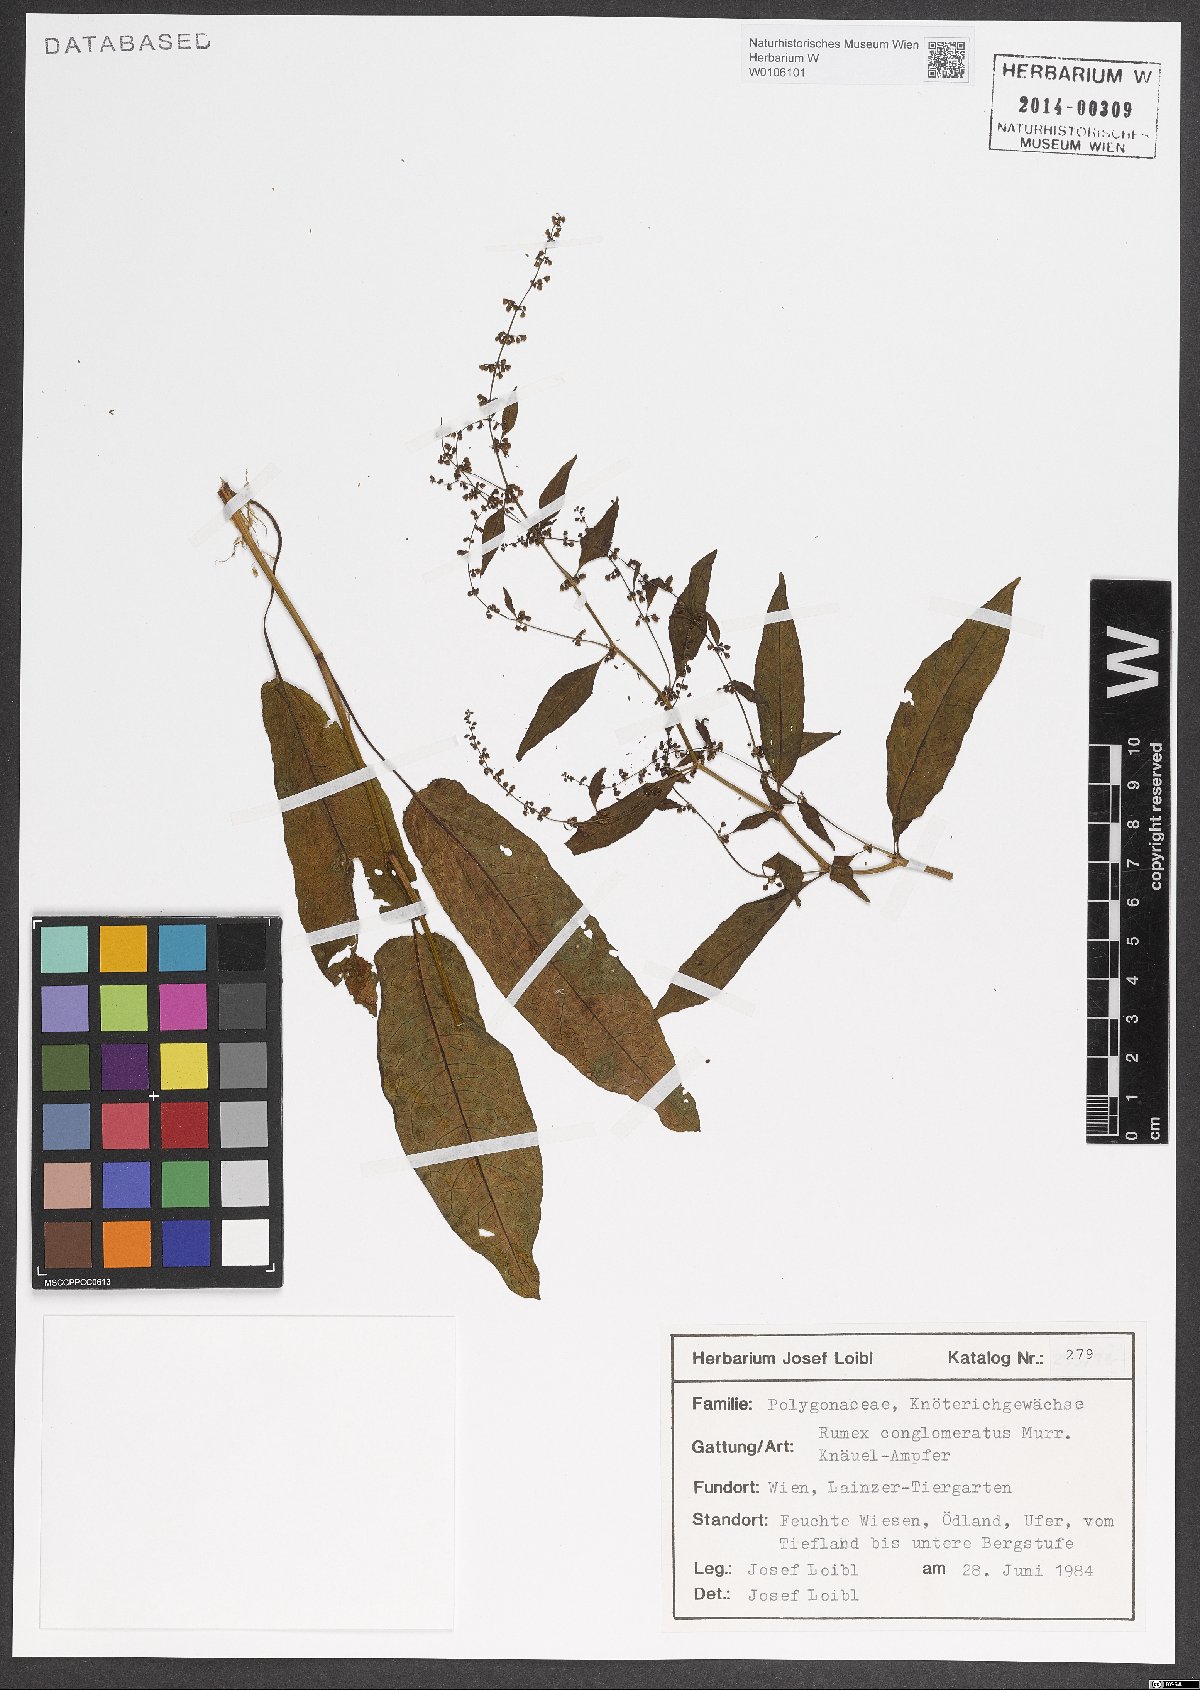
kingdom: Plantae
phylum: Tracheophyta
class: Magnoliopsida
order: Caryophyllales
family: Polygonaceae
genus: Rumex
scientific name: Rumex conglomeratus
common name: Clustered dock
